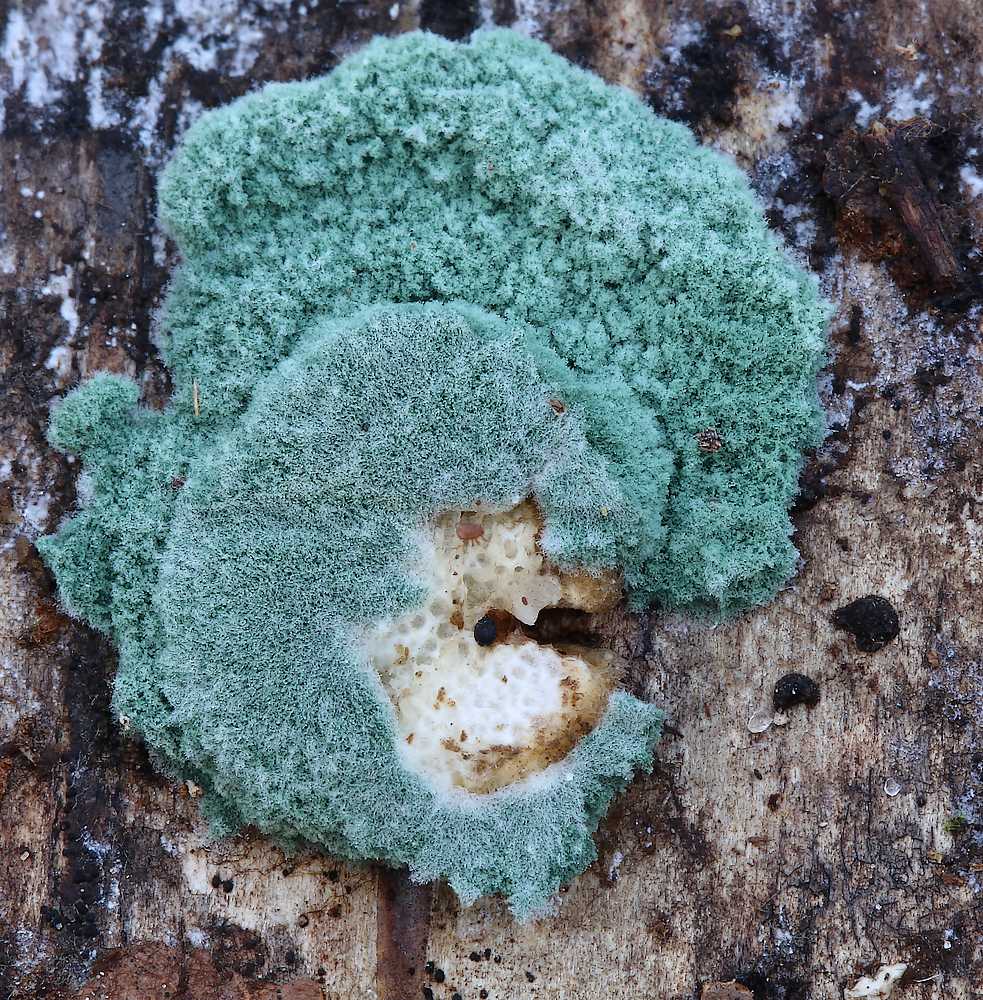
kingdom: Fungi
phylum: Ascomycota
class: Sordariomycetes
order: Hypocreales
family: Hypocreaceae
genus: Trichoderma
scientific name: Trichoderma
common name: kødkerne
